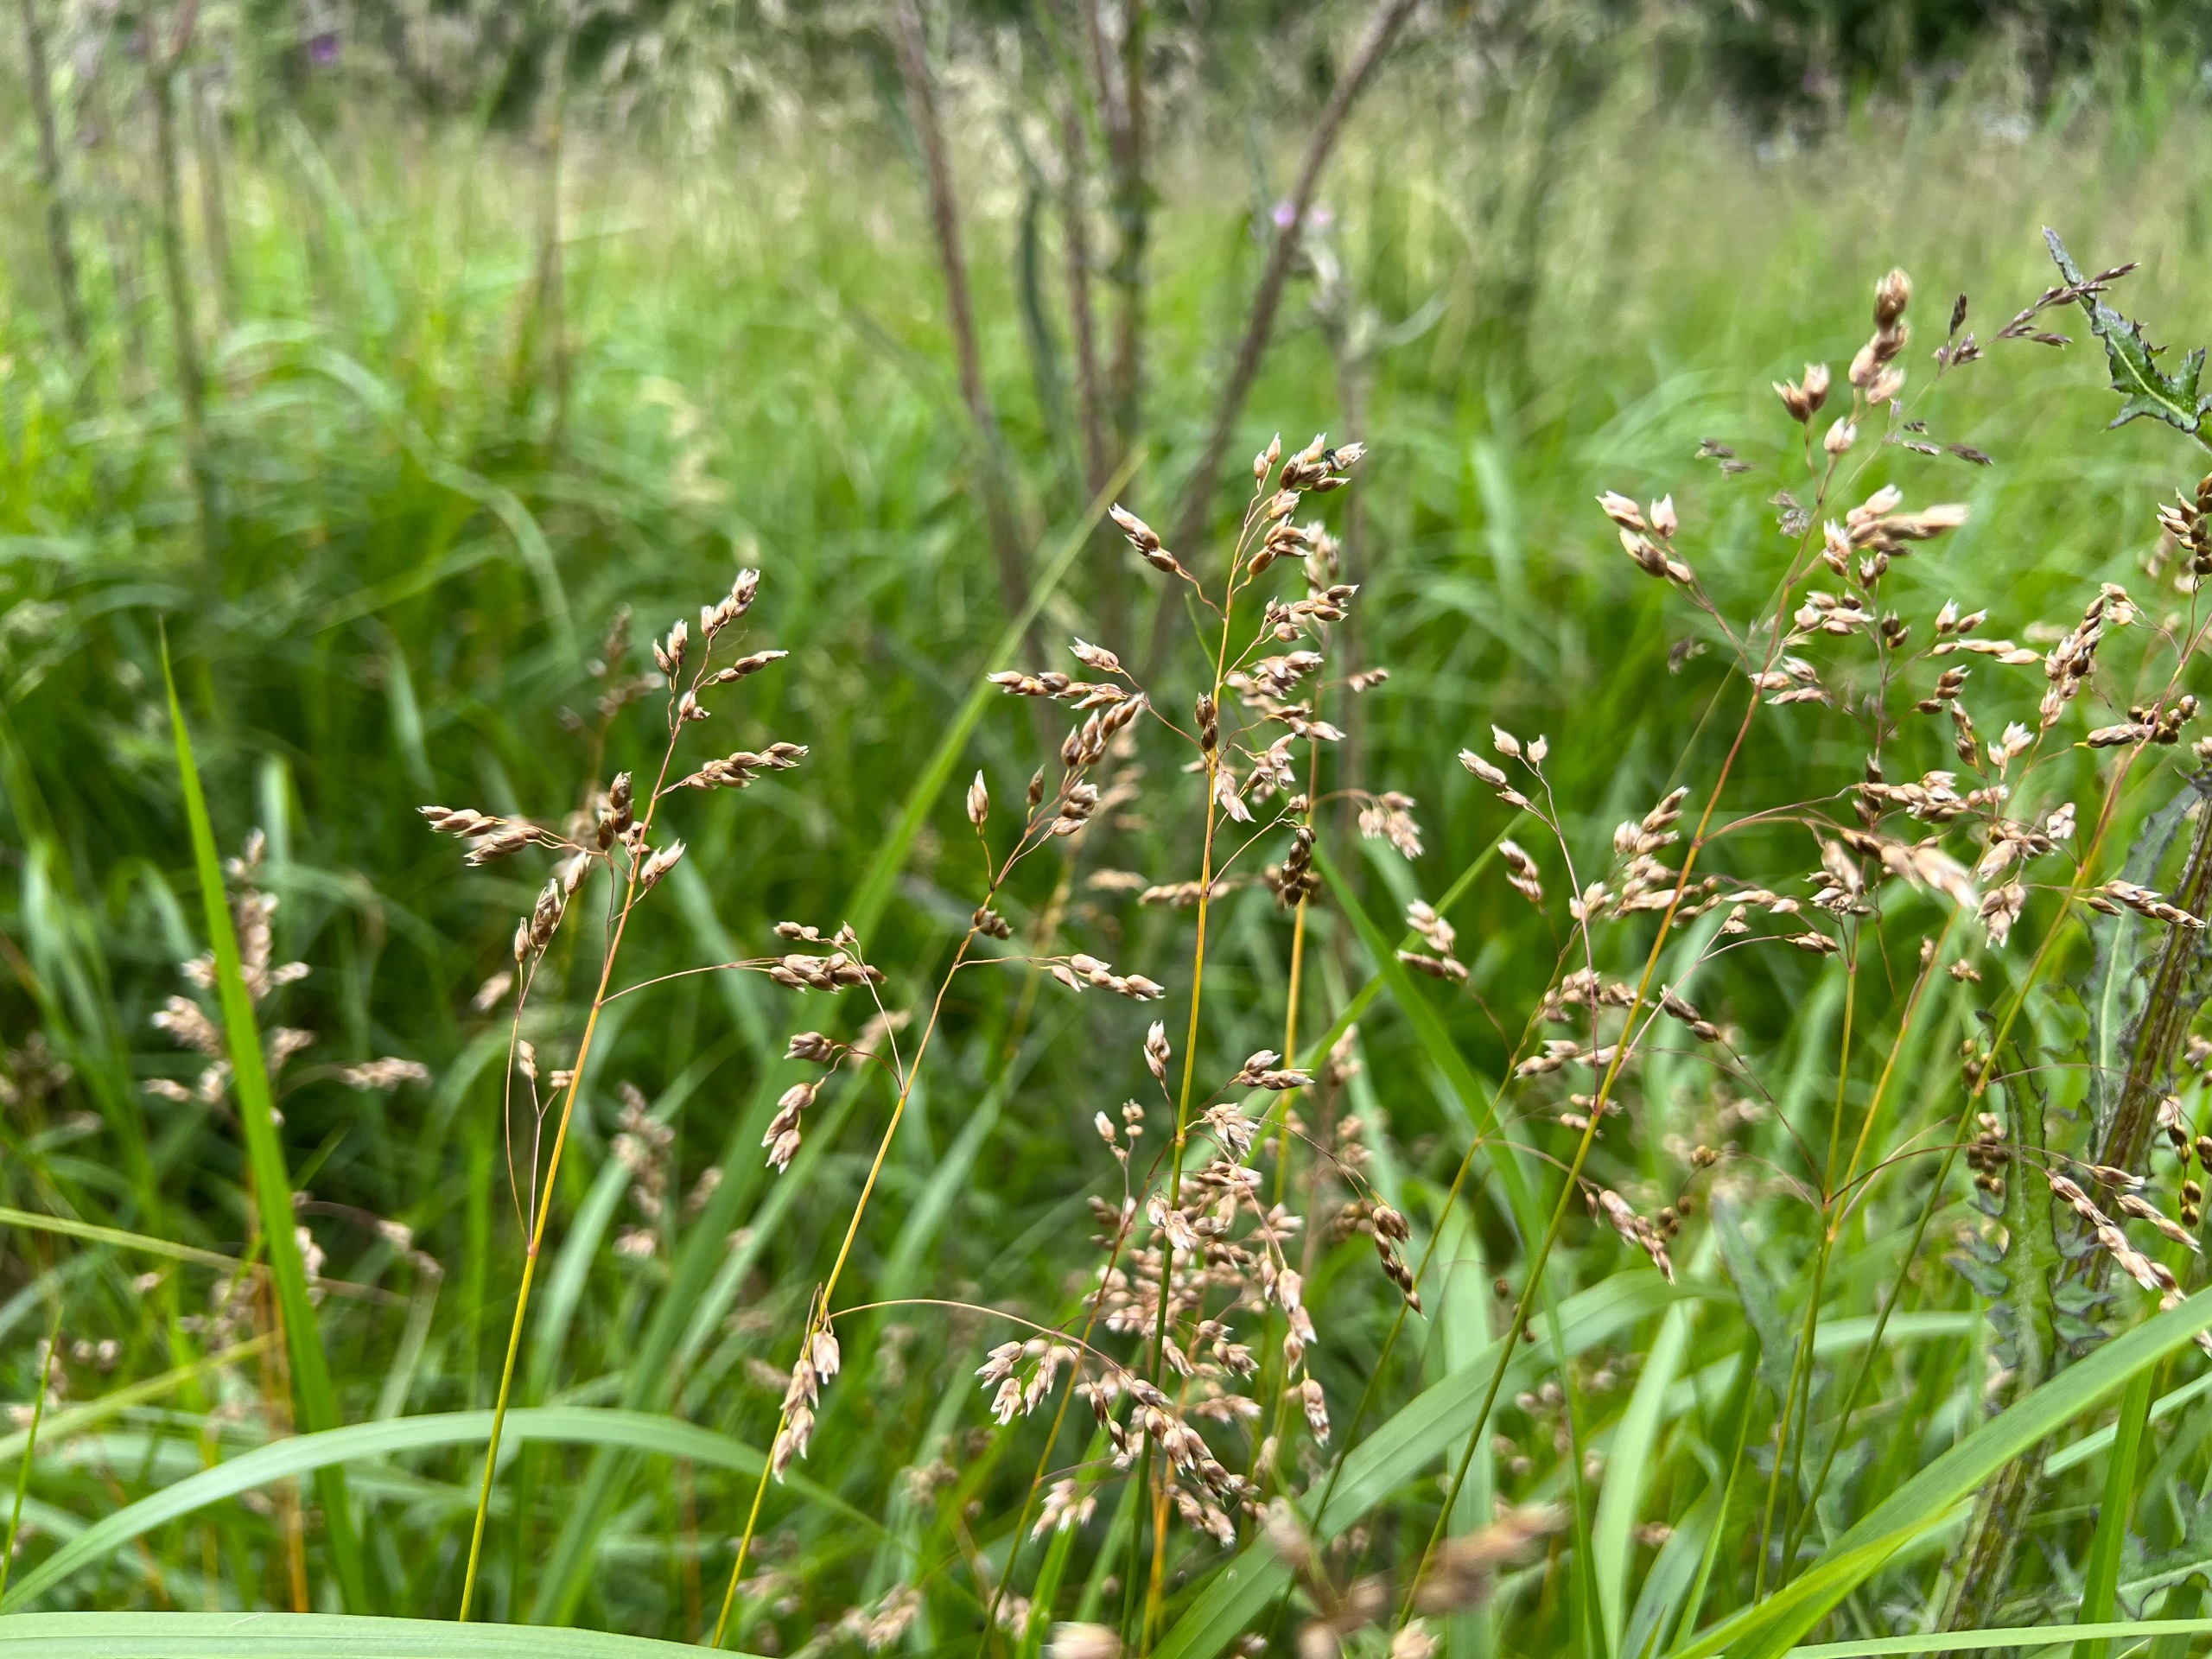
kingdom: Plantae
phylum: Tracheophyta
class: Liliopsida
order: Poales
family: Poaceae
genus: Anthoxanthum
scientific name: Anthoxanthum nitens
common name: Festgræs
